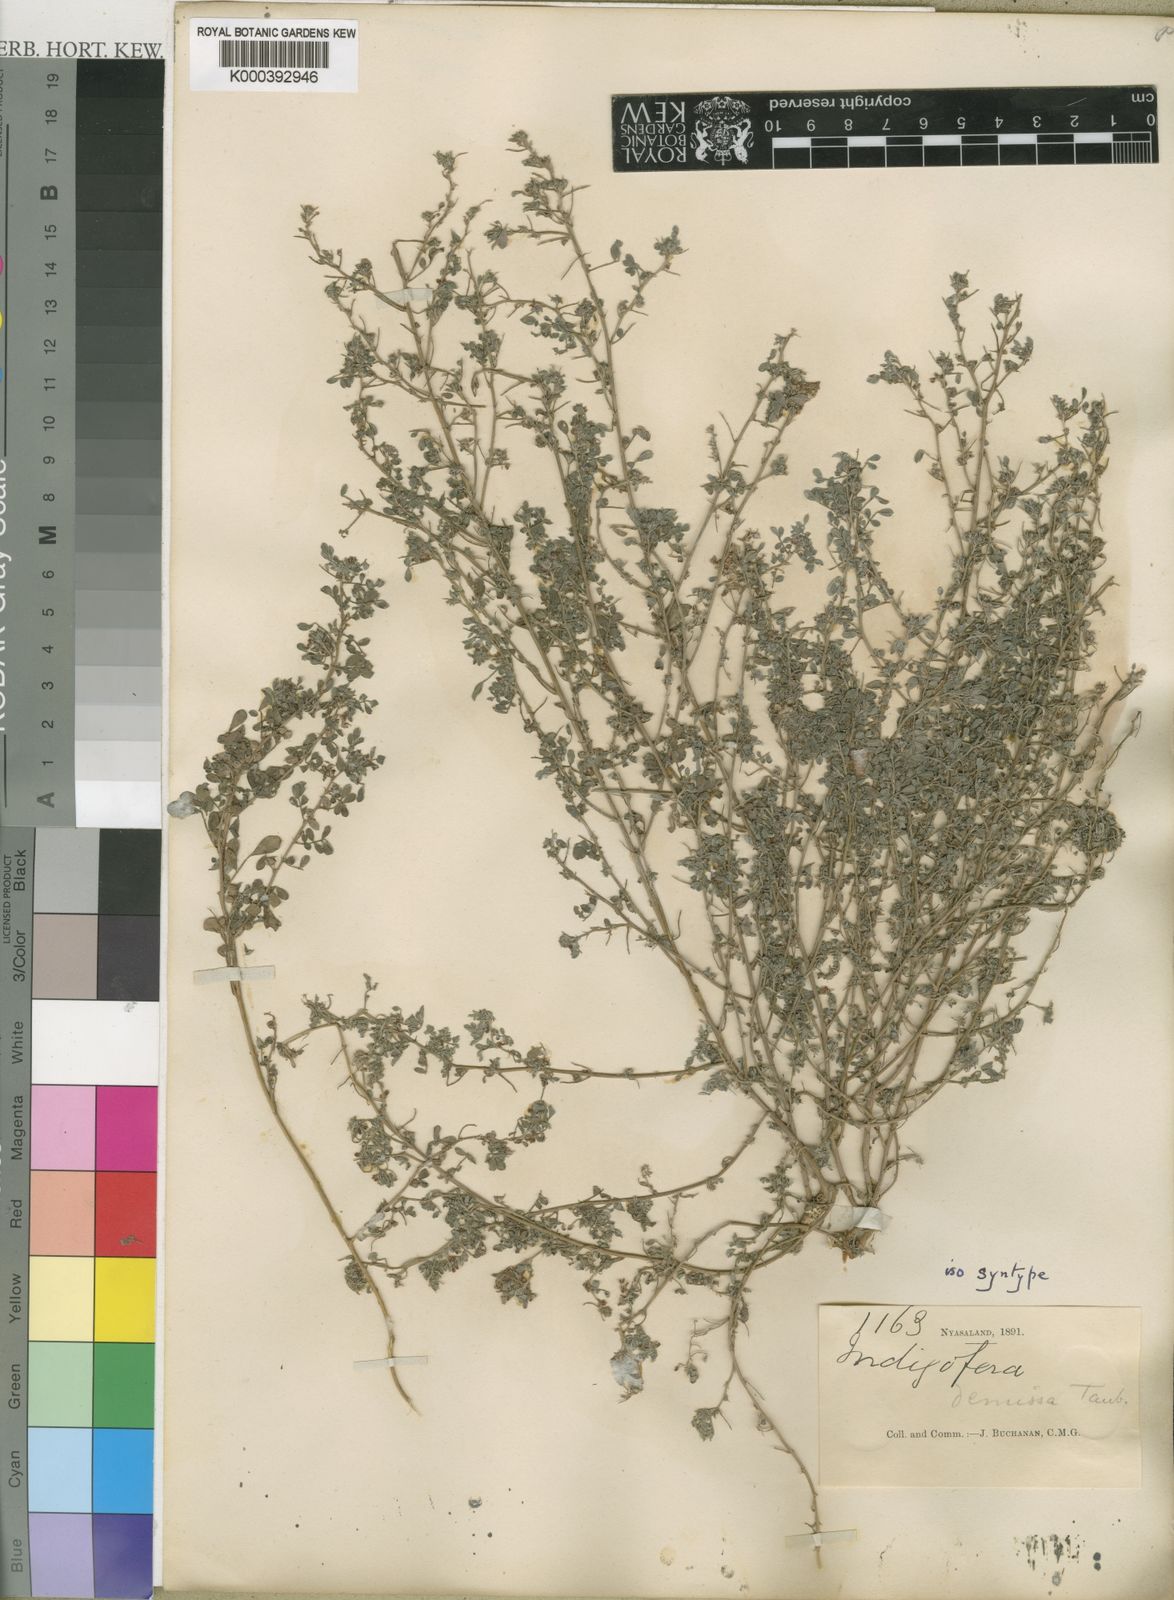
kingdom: Plantae
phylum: Tracheophyta
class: Magnoliopsida
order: Fabales
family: Fabaceae
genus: Indigofera
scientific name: Indigofera demissa
